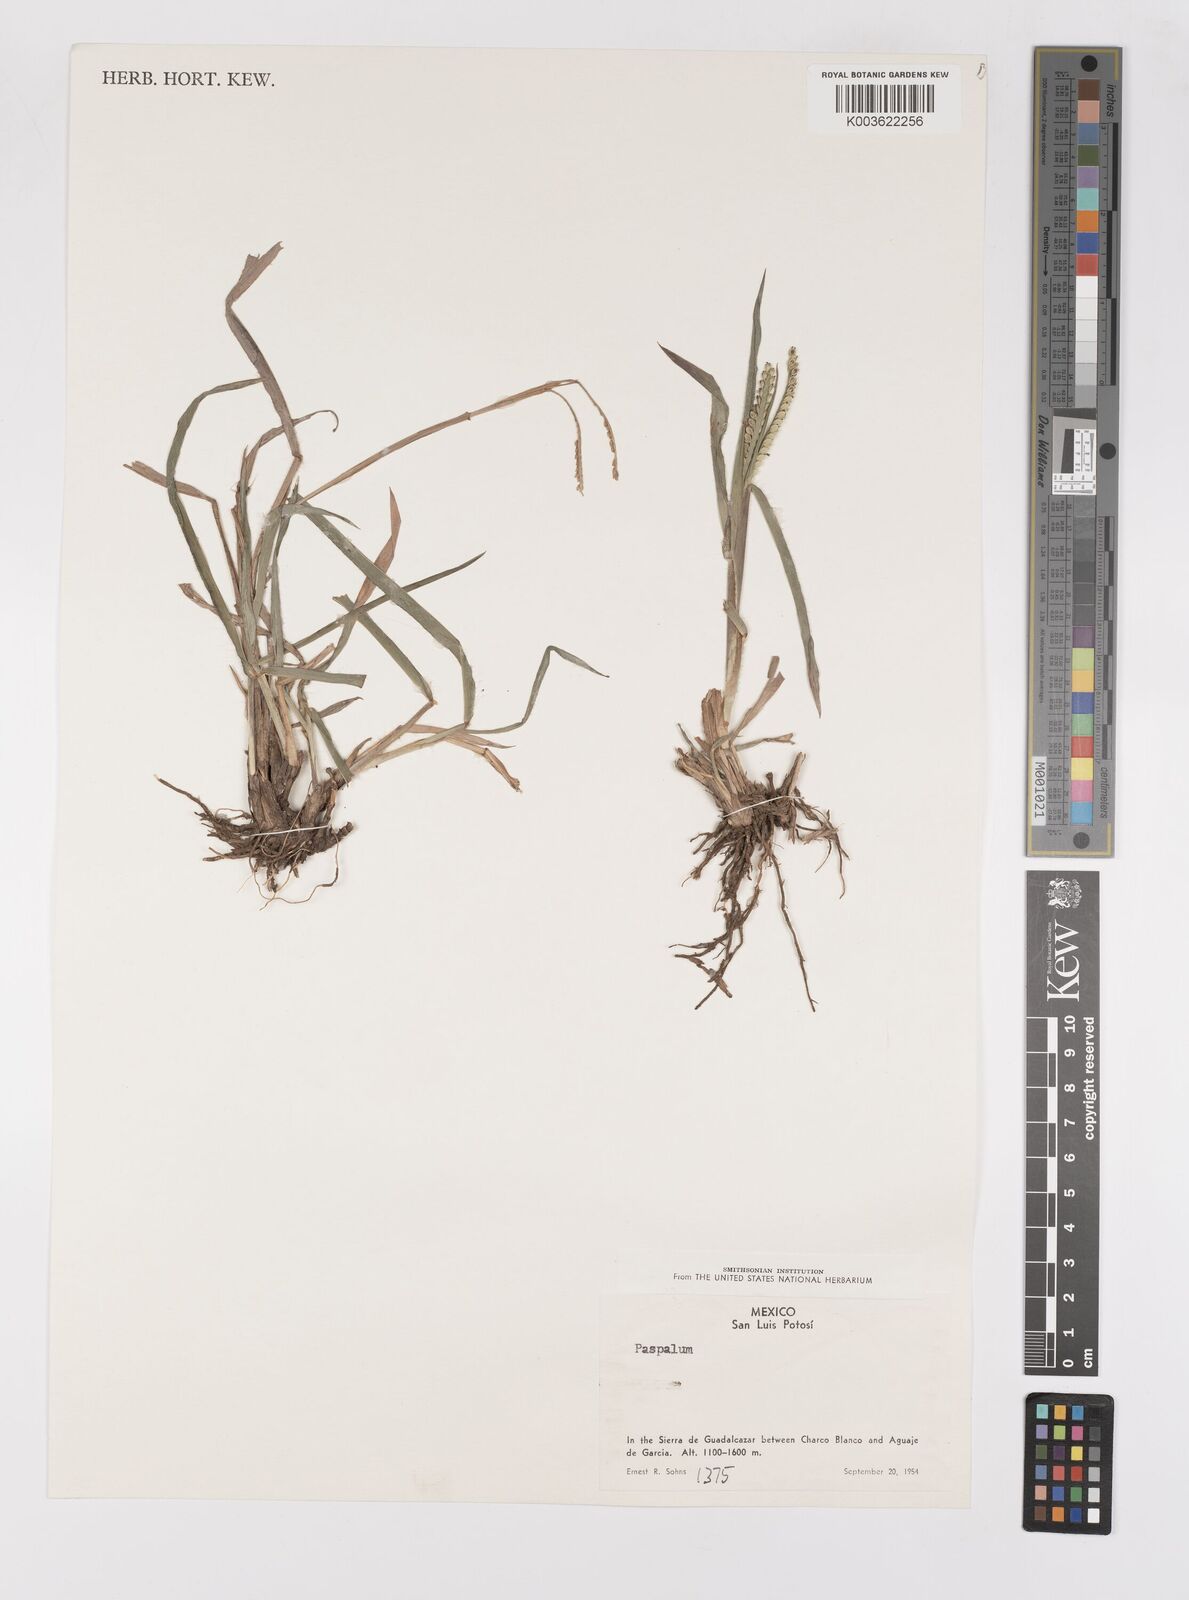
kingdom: Plantae
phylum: Tracheophyta
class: Liliopsida
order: Poales
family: Poaceae
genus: Paspalum
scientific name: Paspalum
